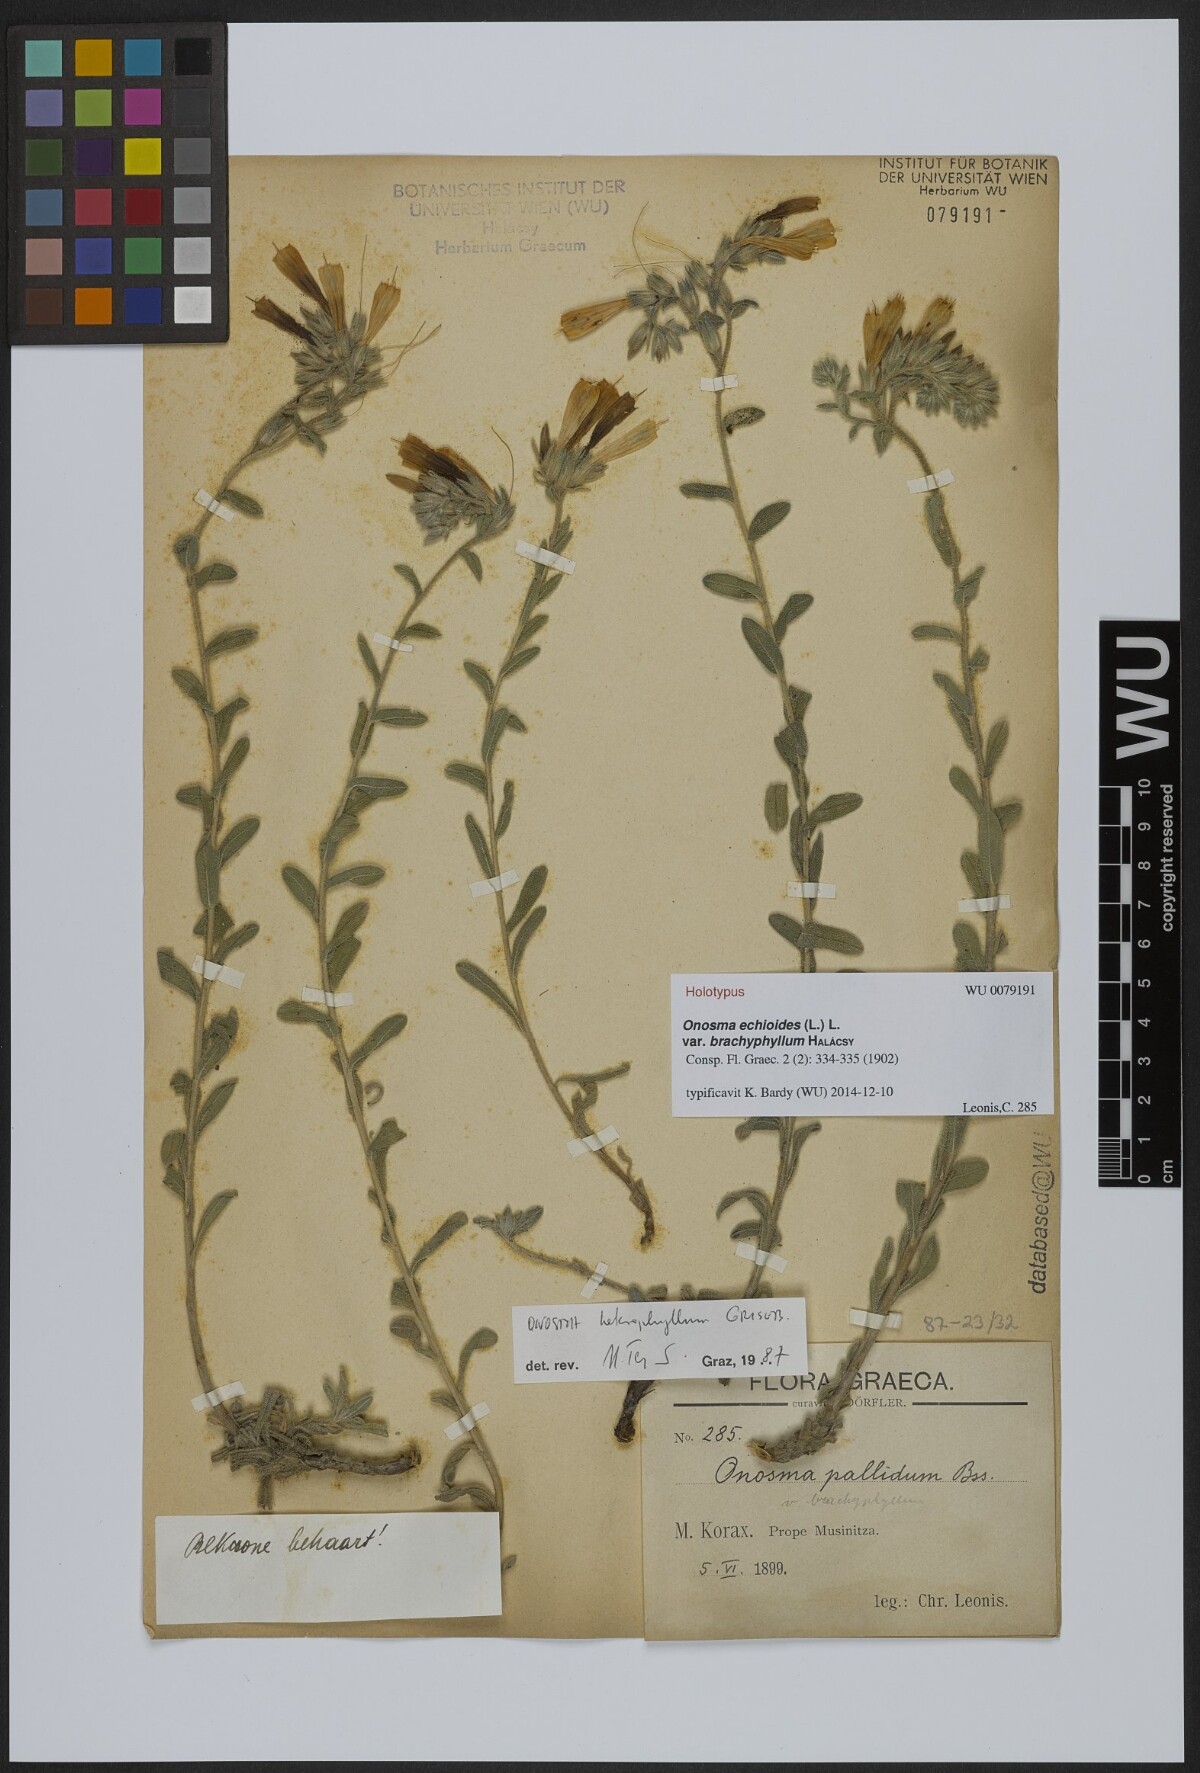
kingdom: Plantae
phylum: Tracheophyta
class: Magnoliopsida
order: Boraginales
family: Boraginaceae
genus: Onosma
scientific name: Onosma heterophylla
